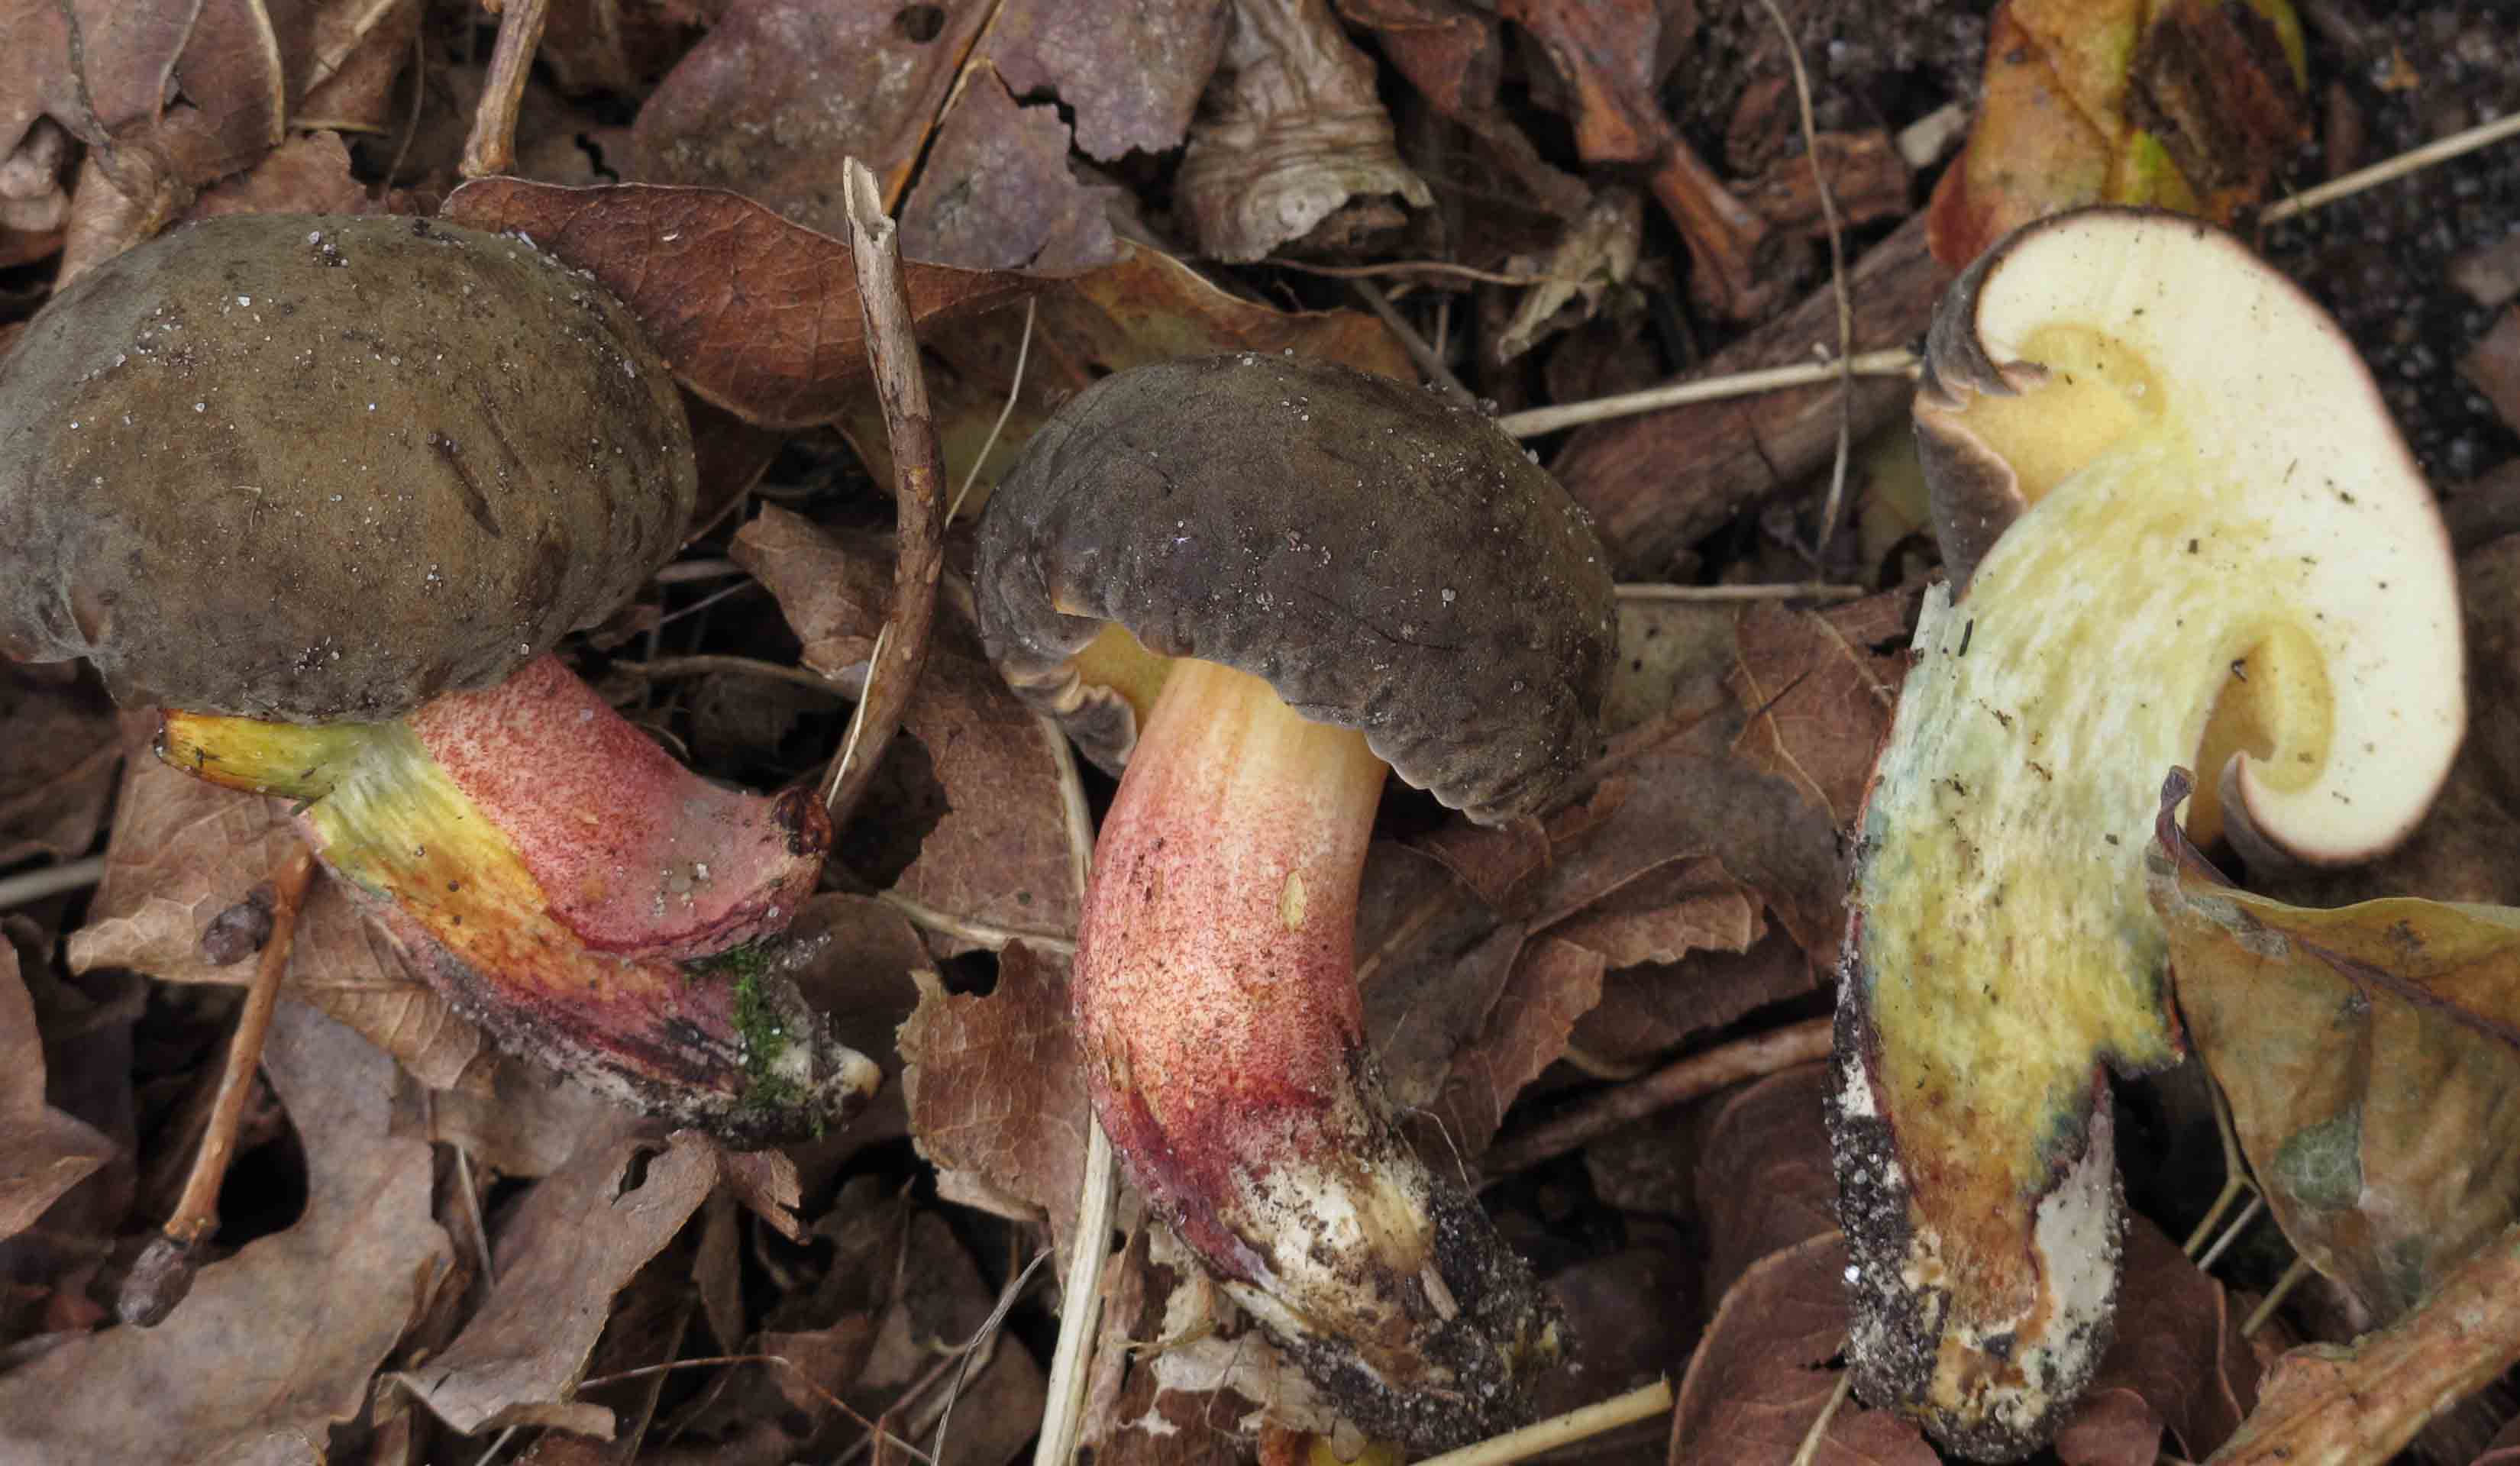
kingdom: Fungi
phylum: Basidiomycota
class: Agaricomycetes
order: Boletales
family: Boletaceae
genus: Xerocomellus
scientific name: Xerocomellus cisalpinus
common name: finsprukken rørhat
